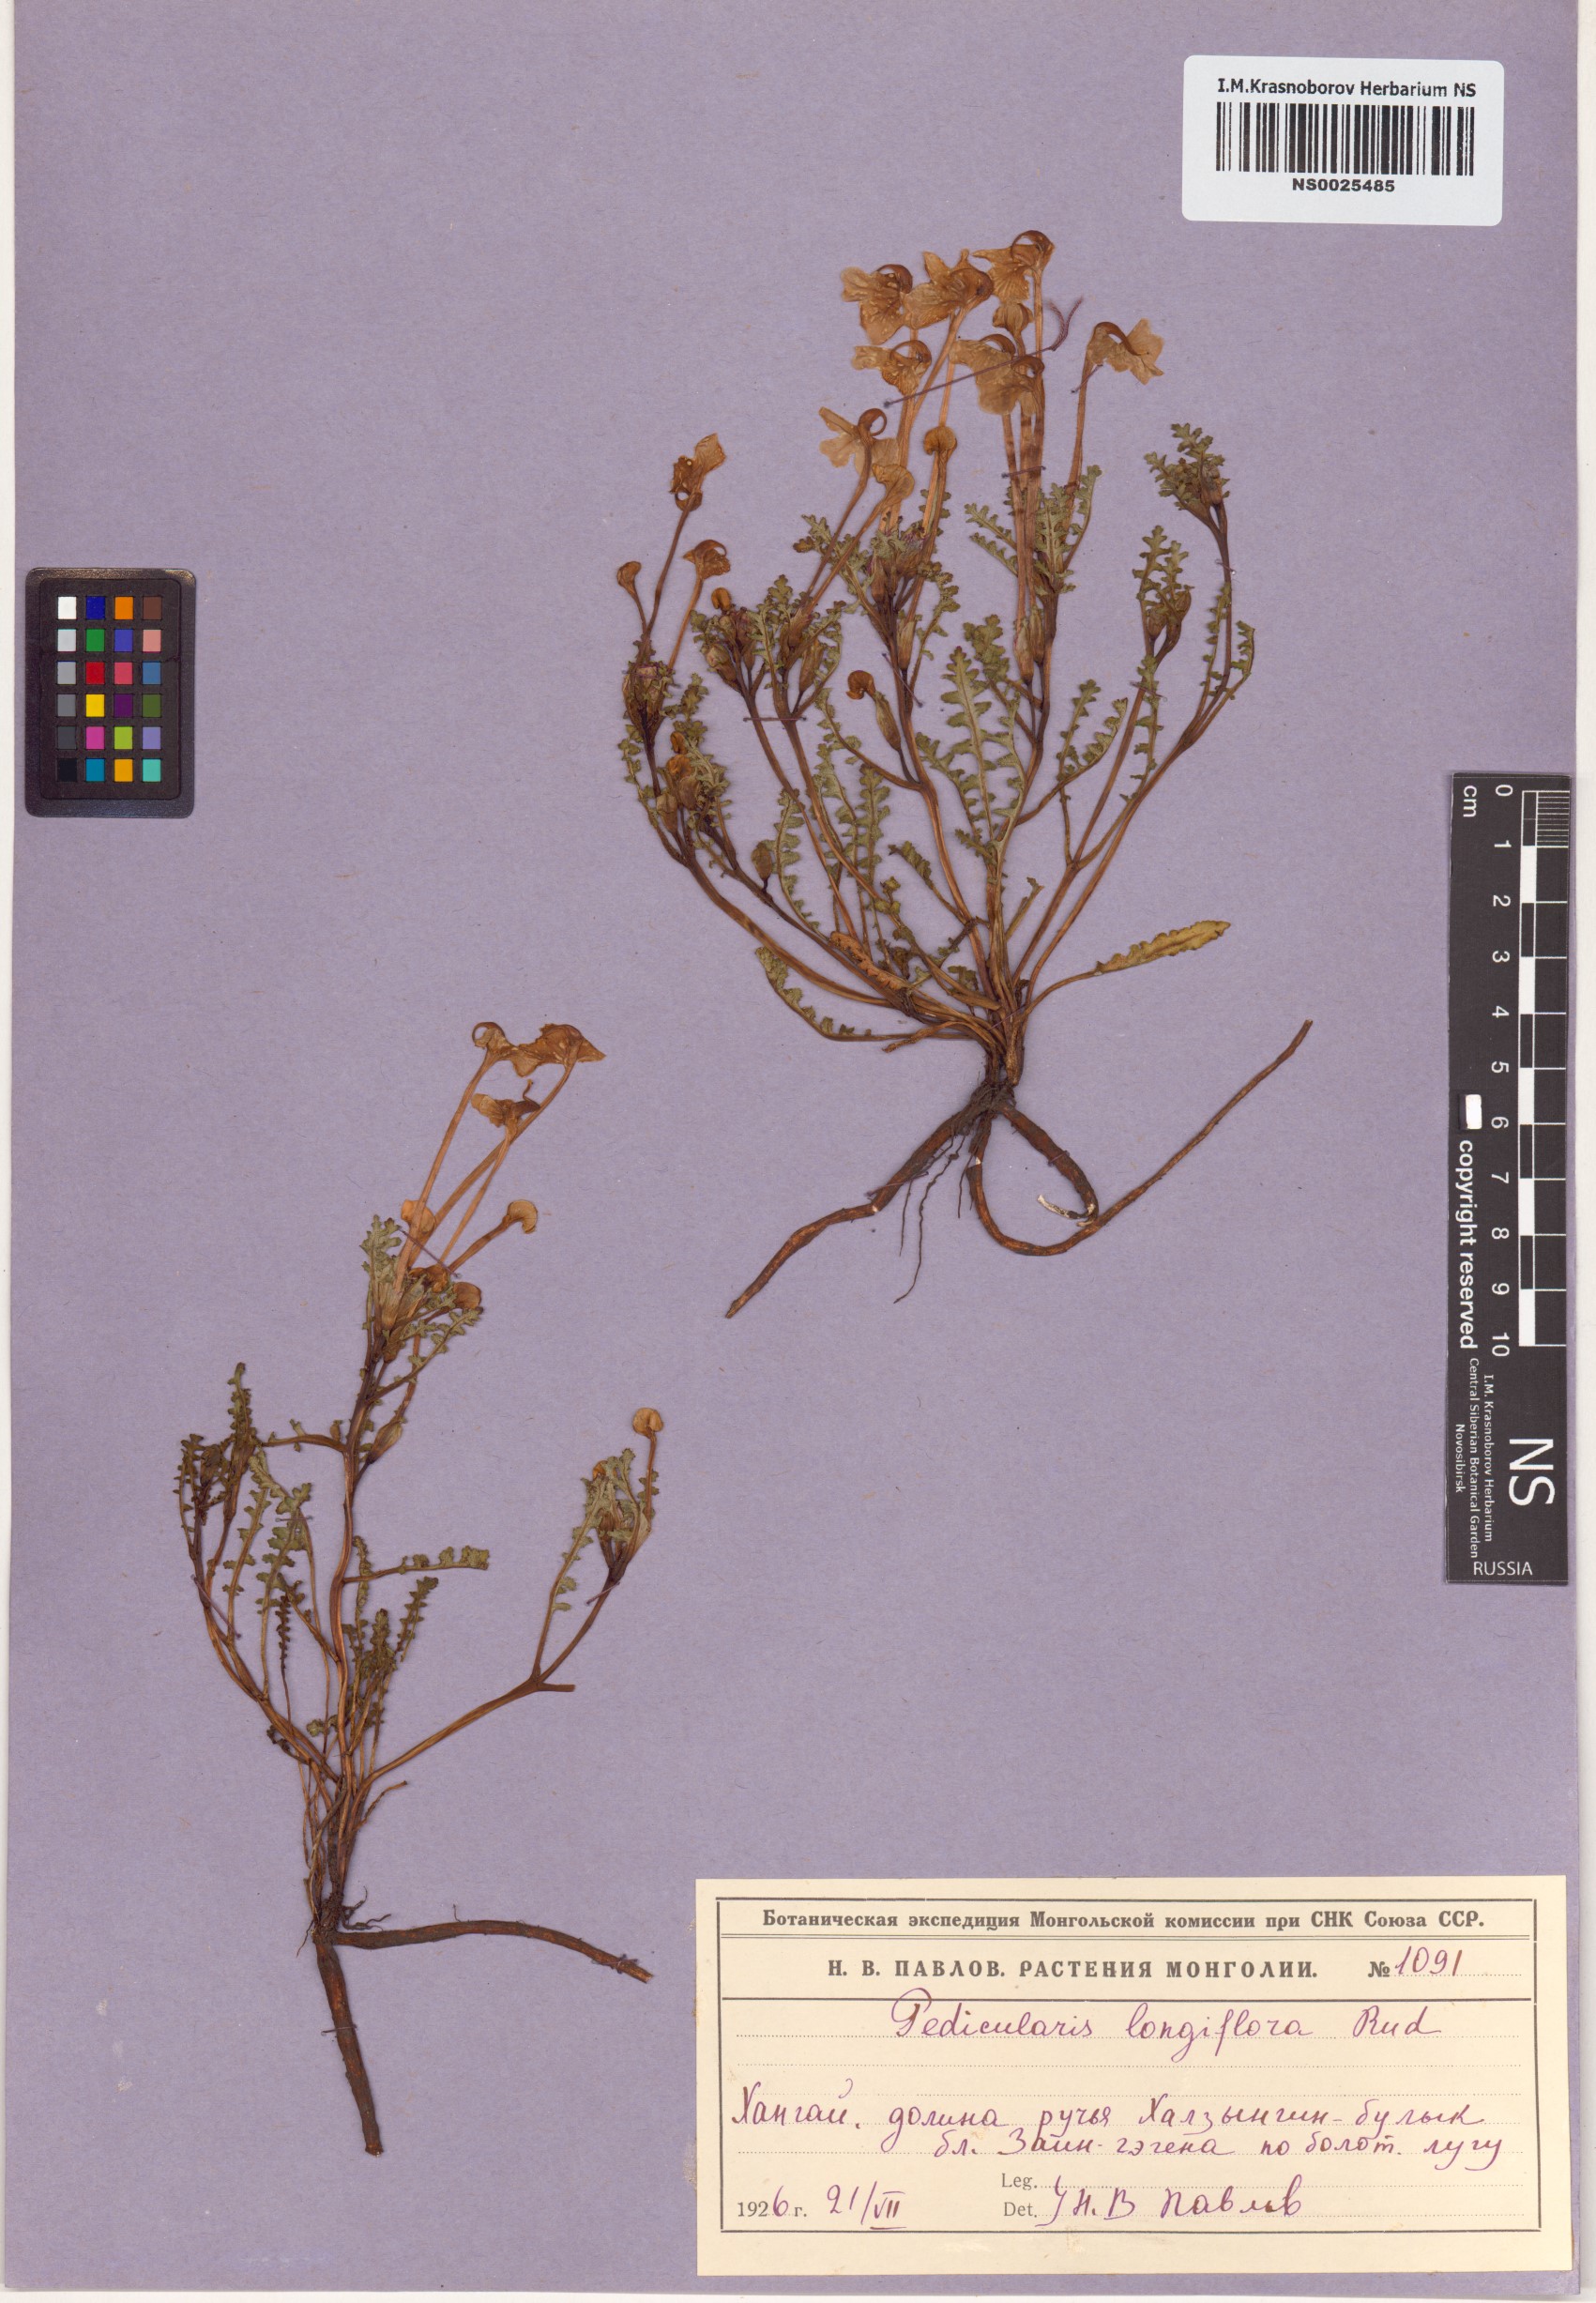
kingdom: Plantae
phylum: Tracheophyta
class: Magnoliopsida
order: Lamiales
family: Orobanchaceae
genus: Pedicularis
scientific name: Pedicularis longiflora
